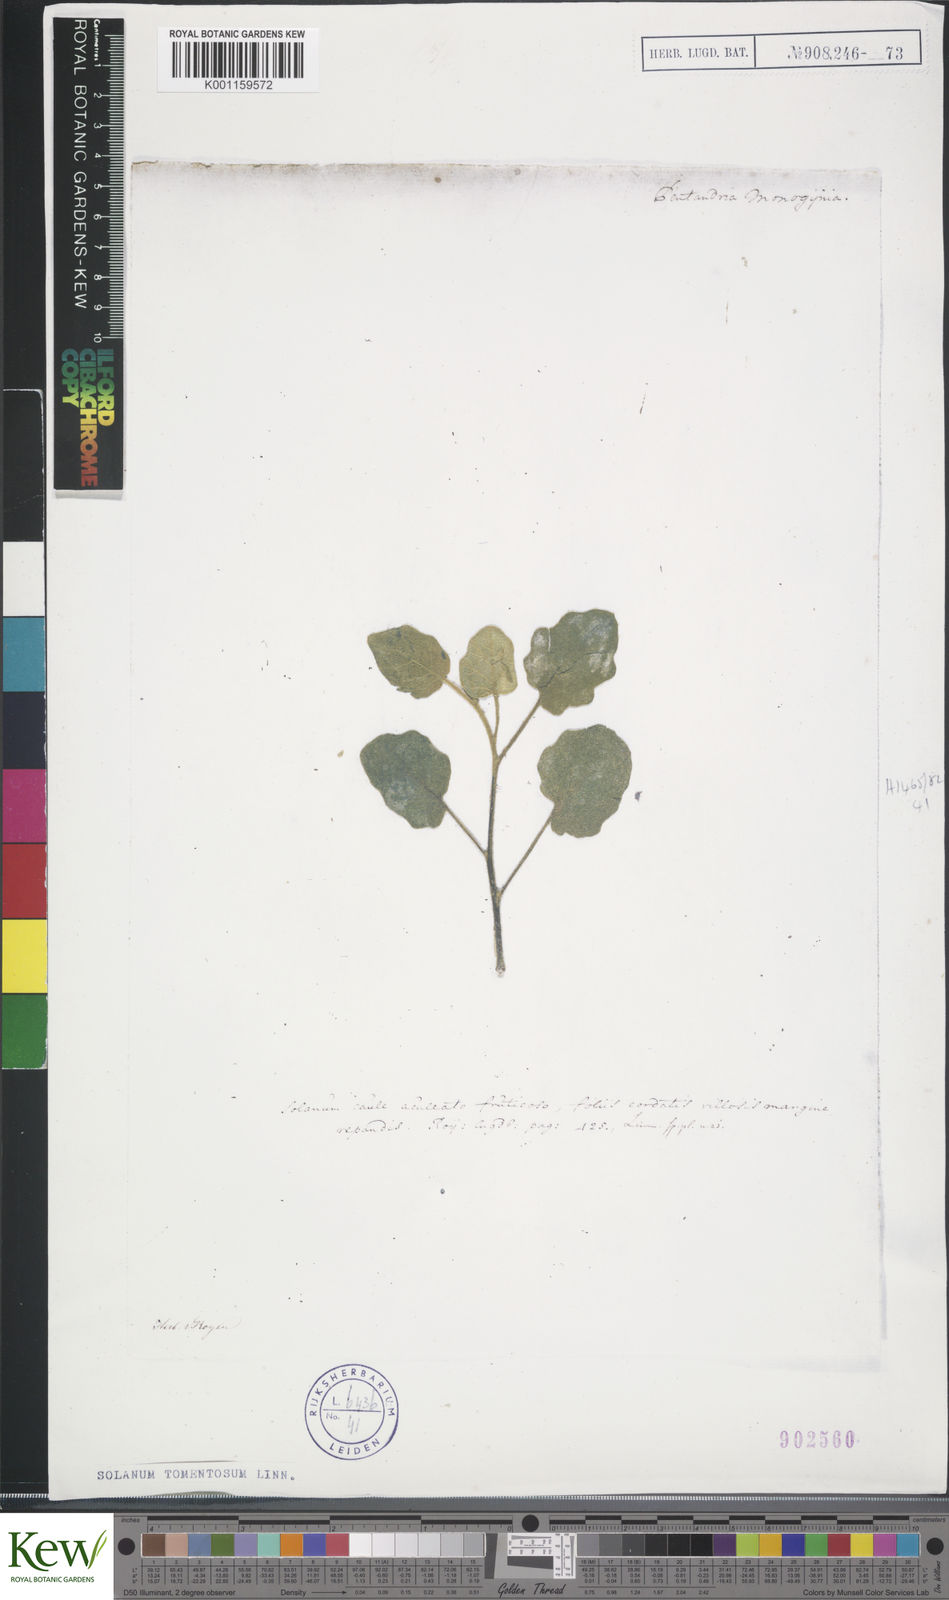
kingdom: Plantae
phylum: Tracheophyta
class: Magnoliopsida
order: Solanales
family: Solanaceae
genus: Solanum
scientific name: Solanum tomentosum
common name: Wild aubergine
